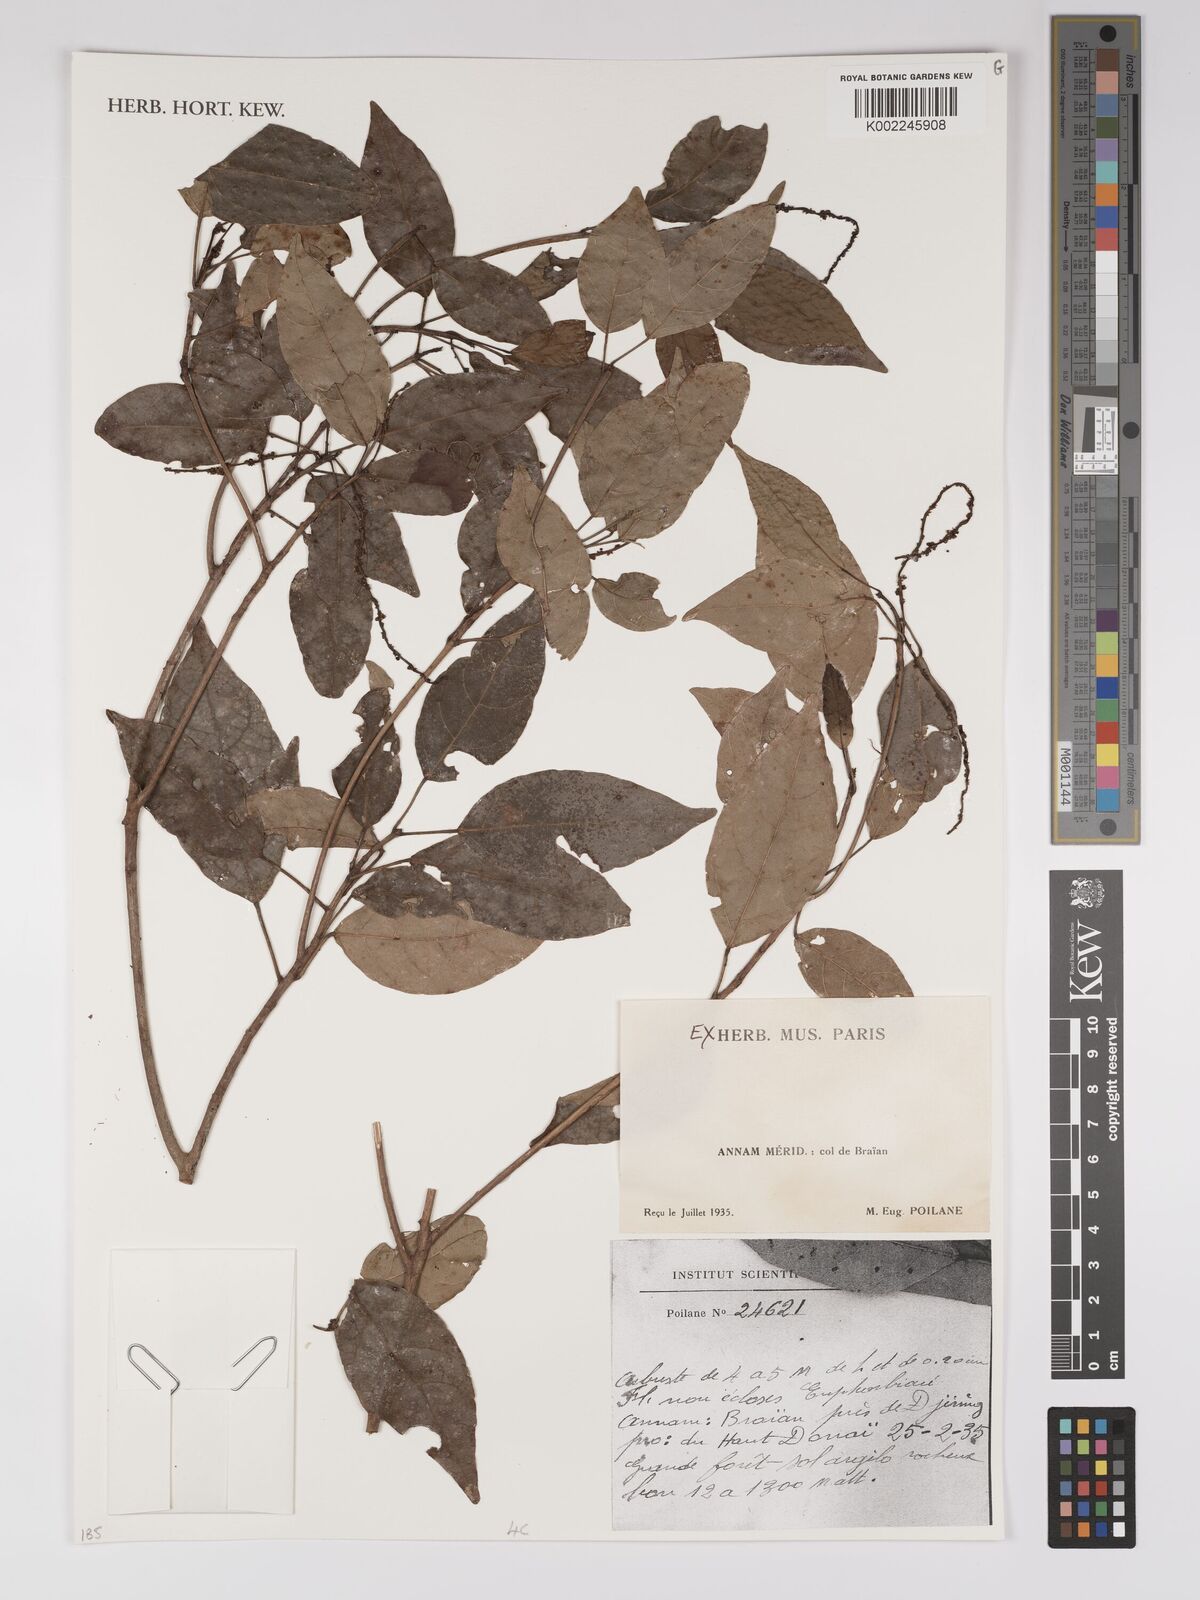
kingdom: Plantae
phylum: Tracheophyta
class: Magnoliopsida
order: Malpighiales
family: Euphorbiaceae
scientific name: Euphorbiaceae
